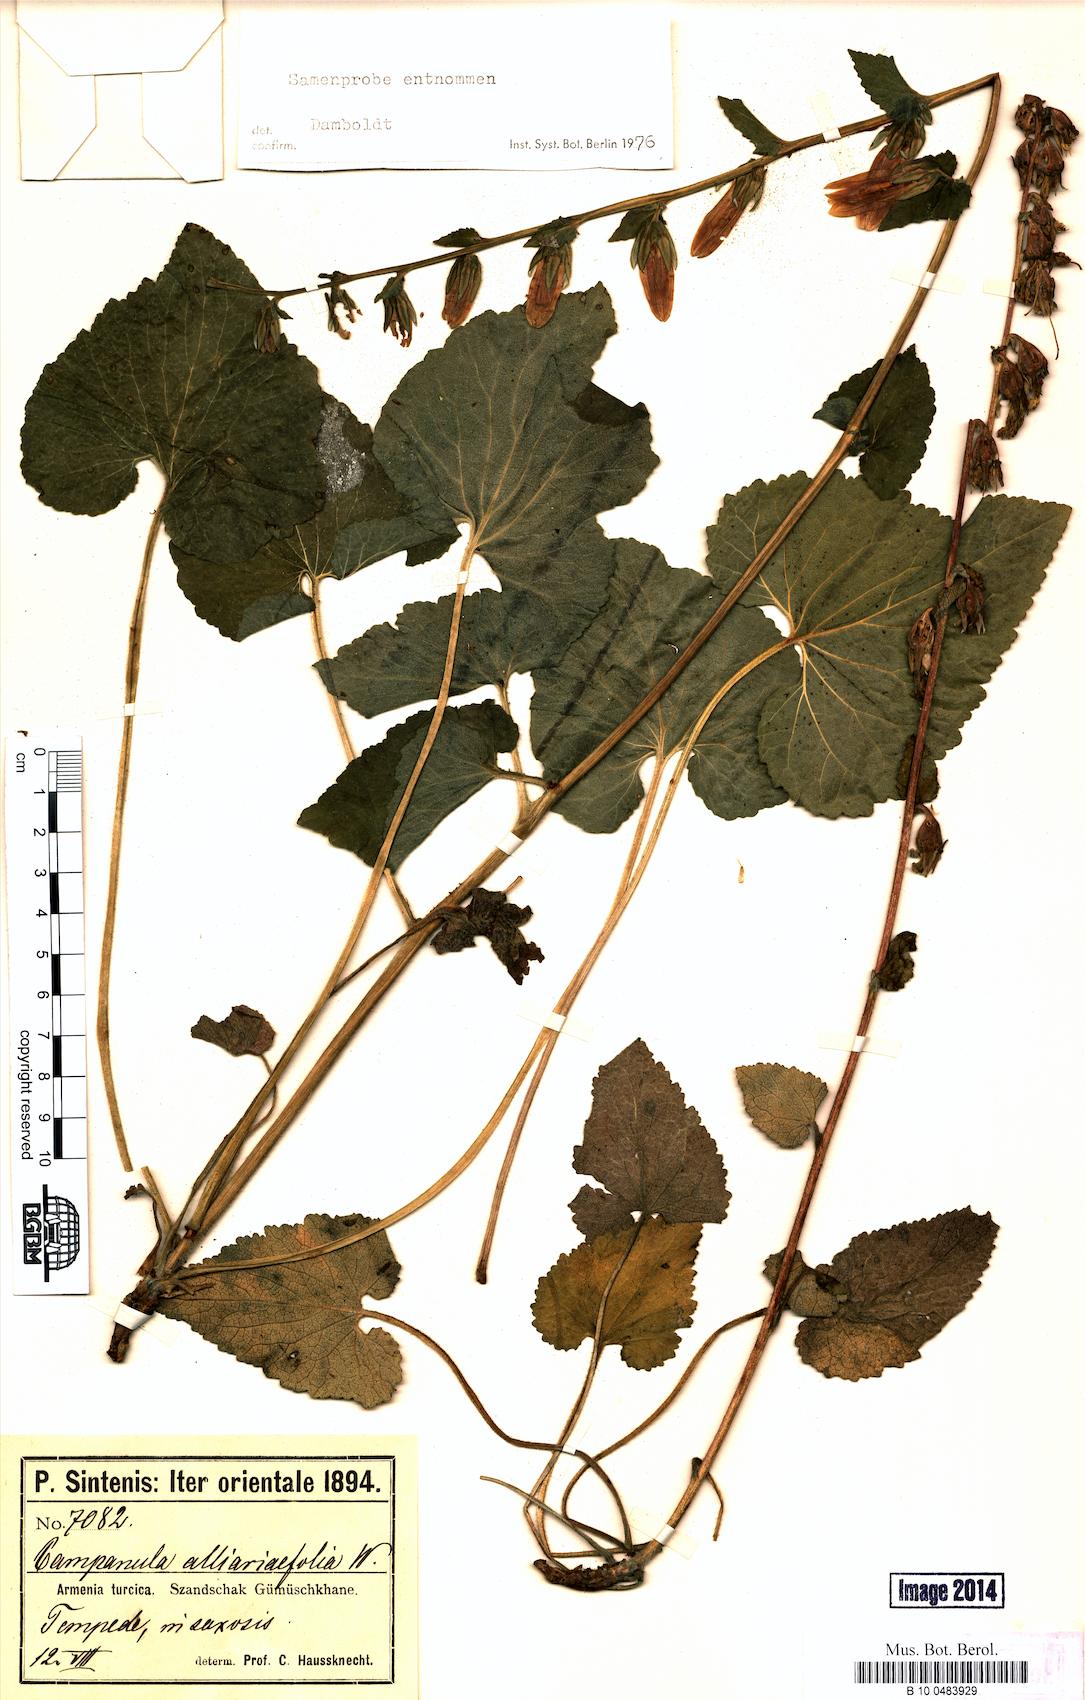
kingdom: Plantae
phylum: Tracheophyta
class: Magnoliopsida
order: Asterales
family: Campanulaceae
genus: Campanula
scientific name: Campanula alliariifolia
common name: Cornish bellflower
